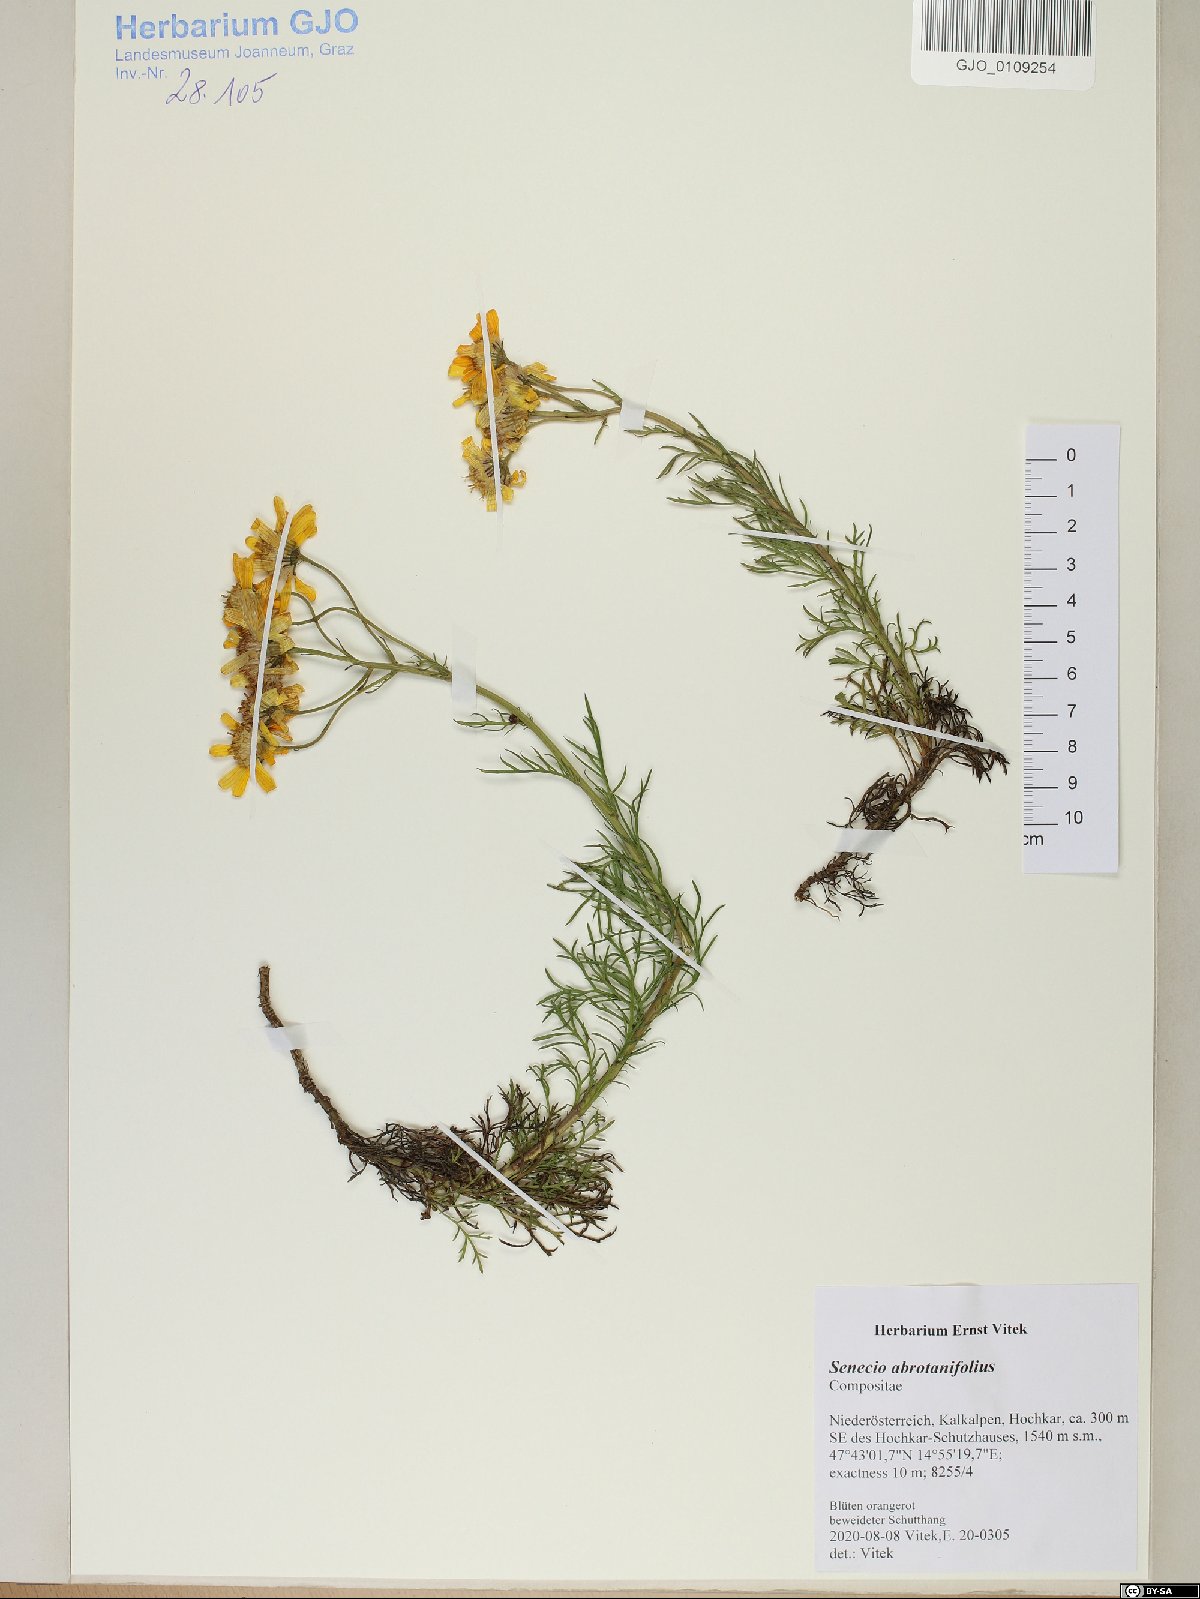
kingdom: Plantae
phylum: Tracheophyta
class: Magnoliopsida
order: Asterales
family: Asteraceae
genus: Jacobaea
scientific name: Jacobaea abrotanifolia
